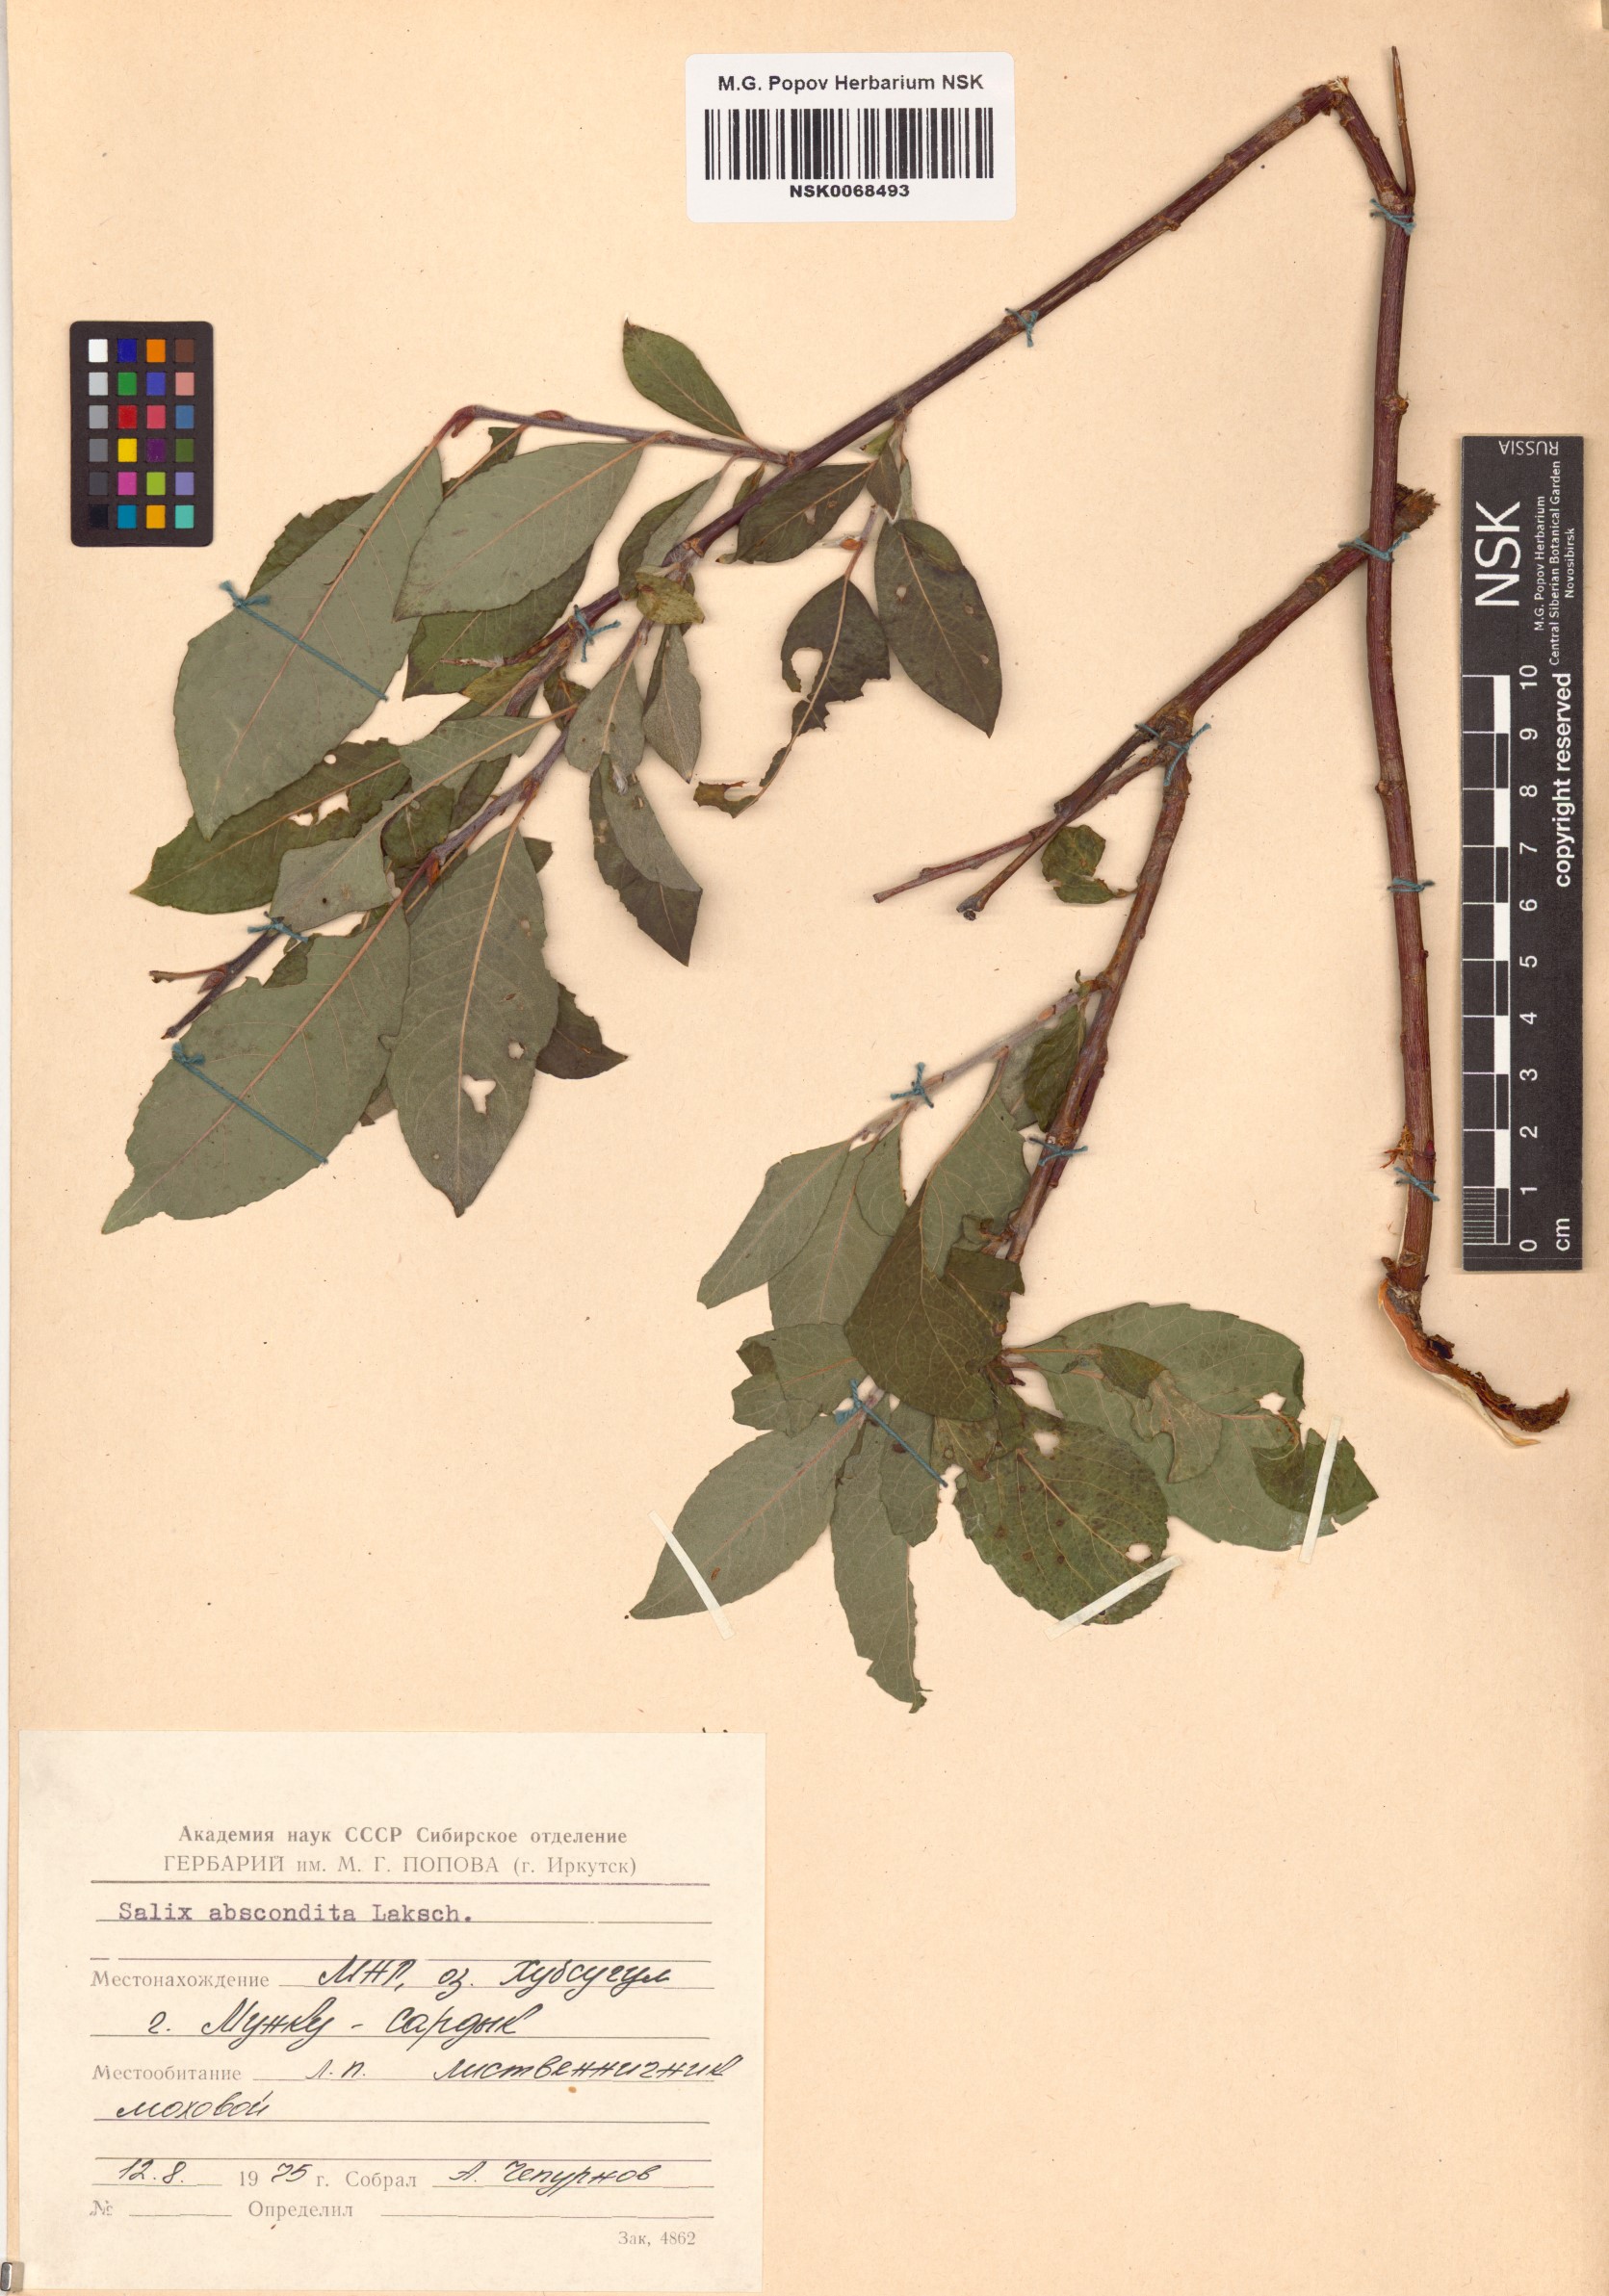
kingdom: Plantae
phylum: Tracheophyta
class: Magnoliopsida
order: Malpighiales
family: Salicaceae
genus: Salix
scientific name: Salix abscondita
